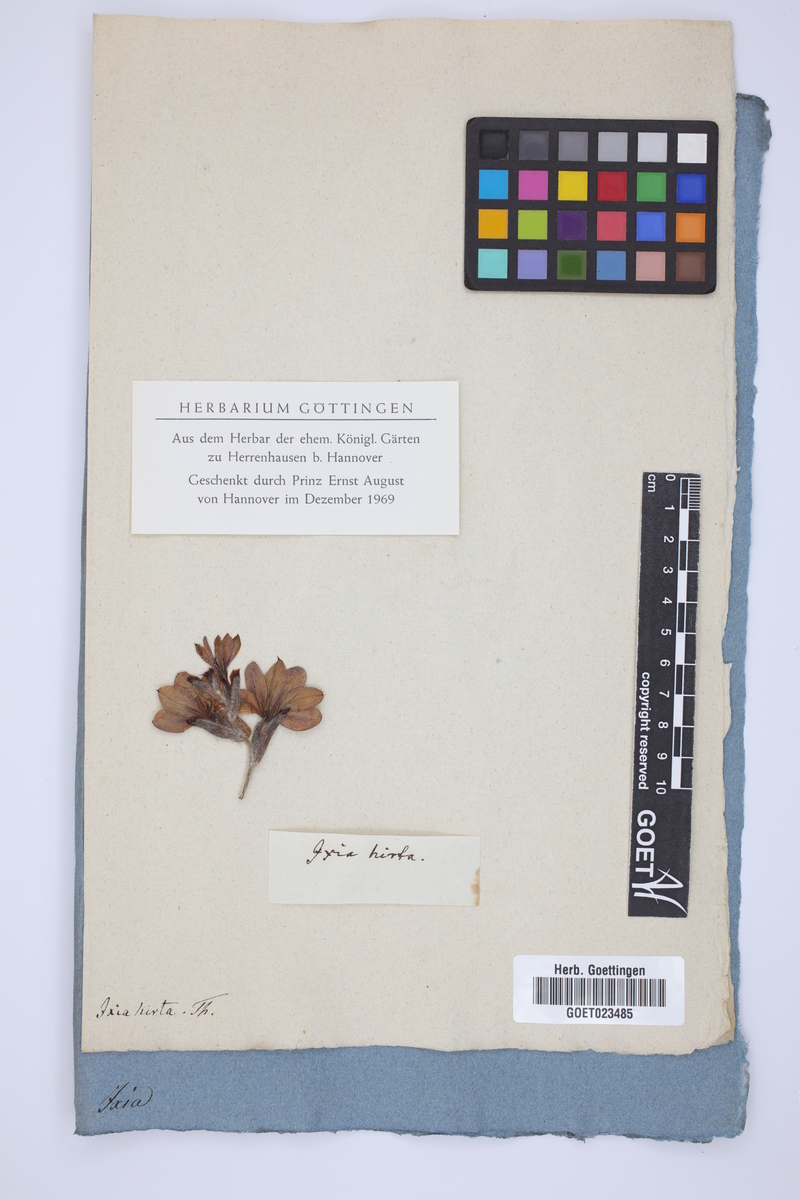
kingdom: Plantae
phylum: Tracheophyta
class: Liliopsida
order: Asparagales
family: Iridaceae
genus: Geissorhiza
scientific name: Geissorhiza inflexa
